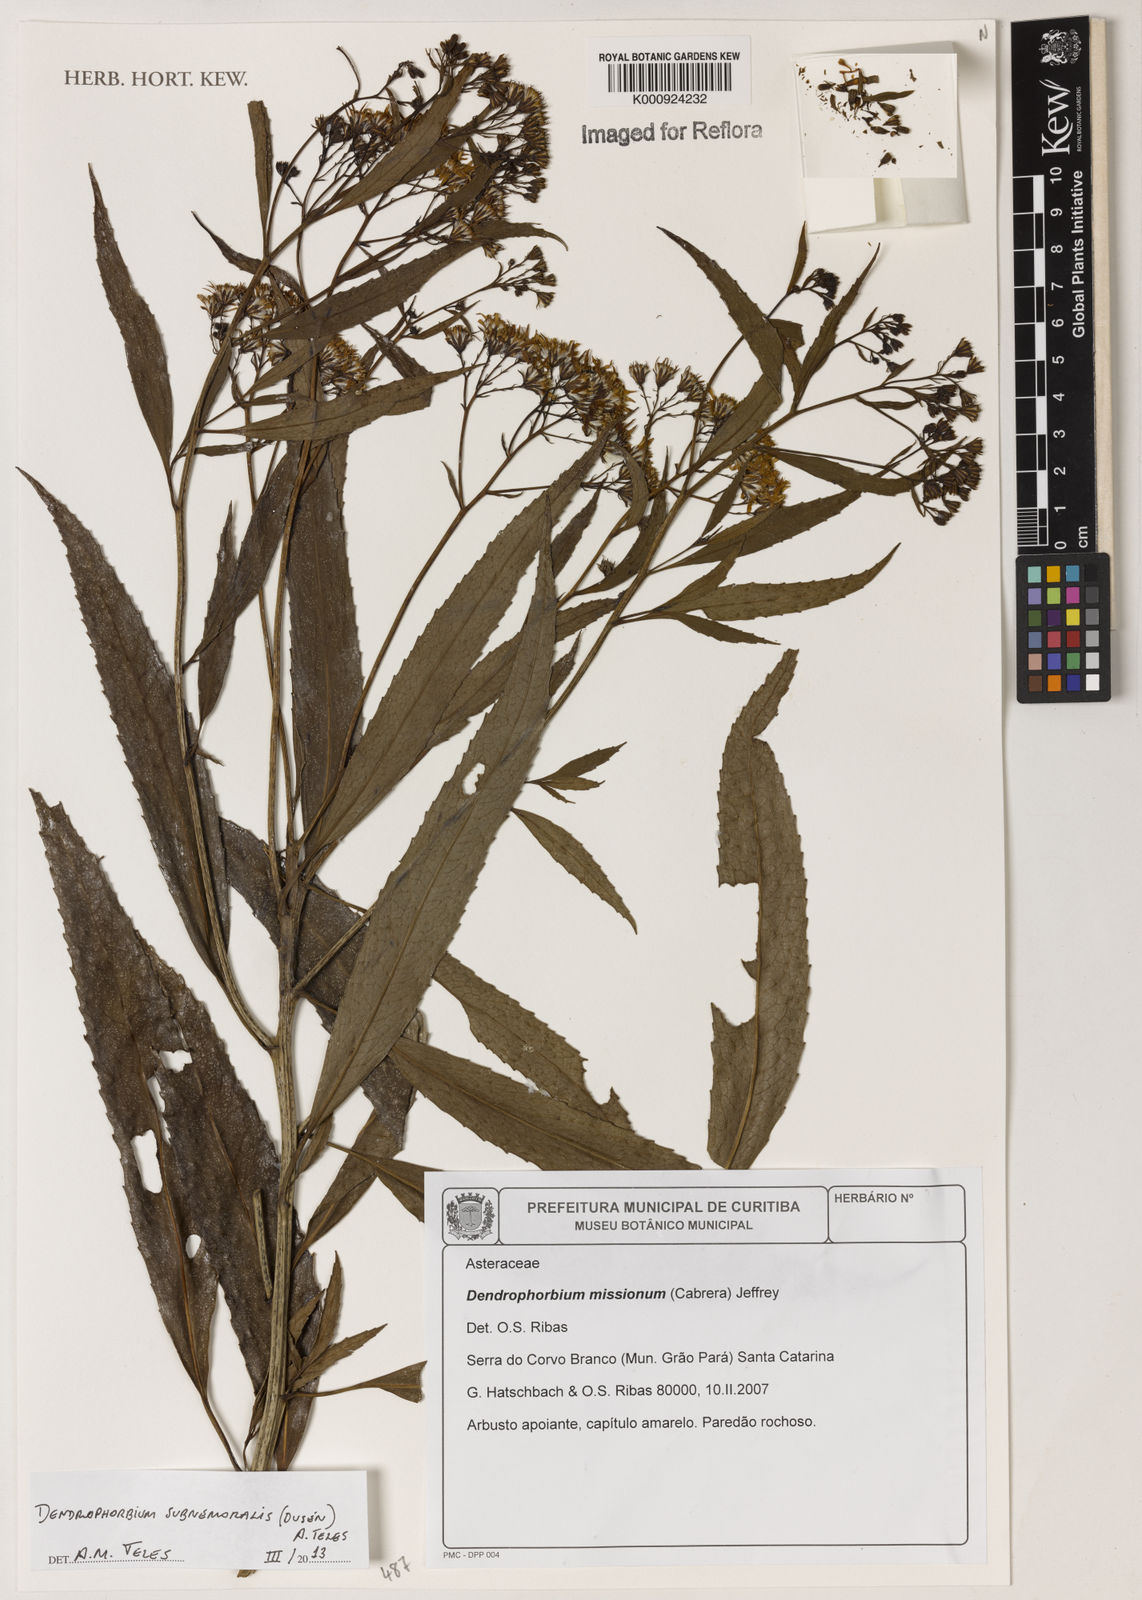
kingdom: Plantae
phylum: Tracheophyta
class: Magnoliopsida
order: Asterales
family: Asteraceae
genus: Dendrophorbium
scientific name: Dendrophorbium
